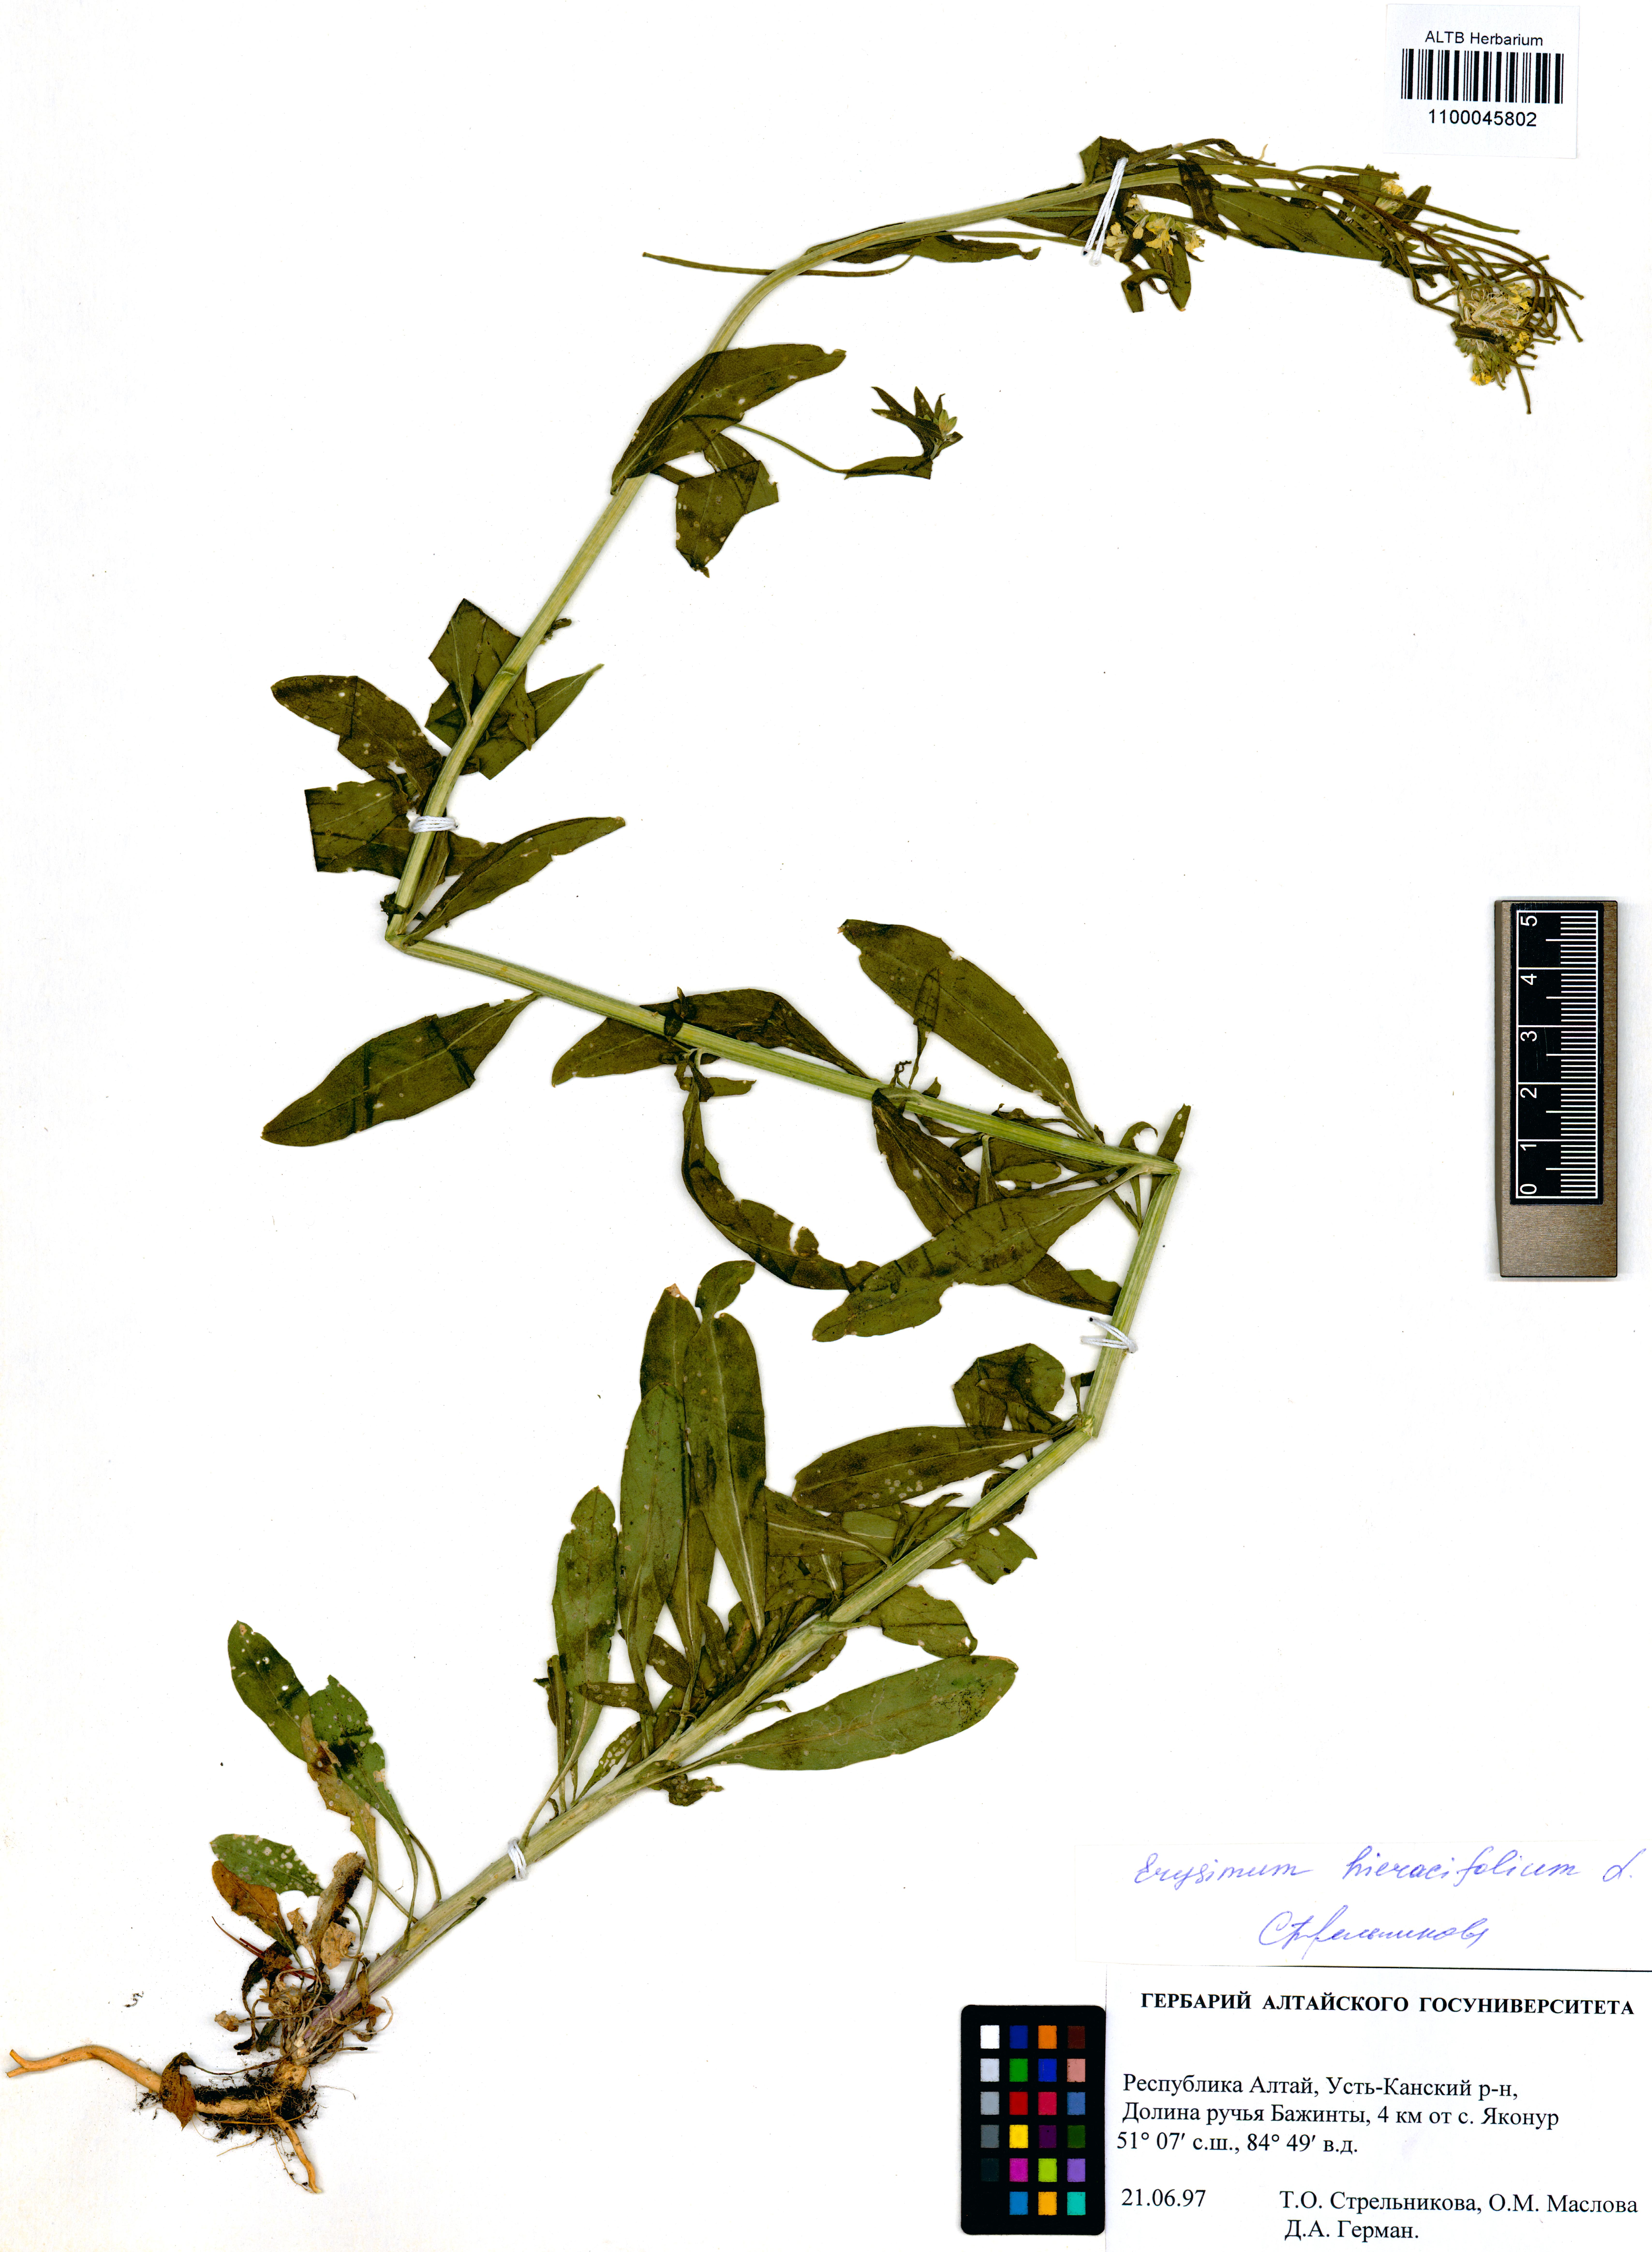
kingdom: Plantae
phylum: Tracheophyta
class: Magnoliopsida
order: Brassicales
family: Brassicaceae
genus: Erysimum
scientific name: Erysimum hieraciifolium
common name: European wallflower
